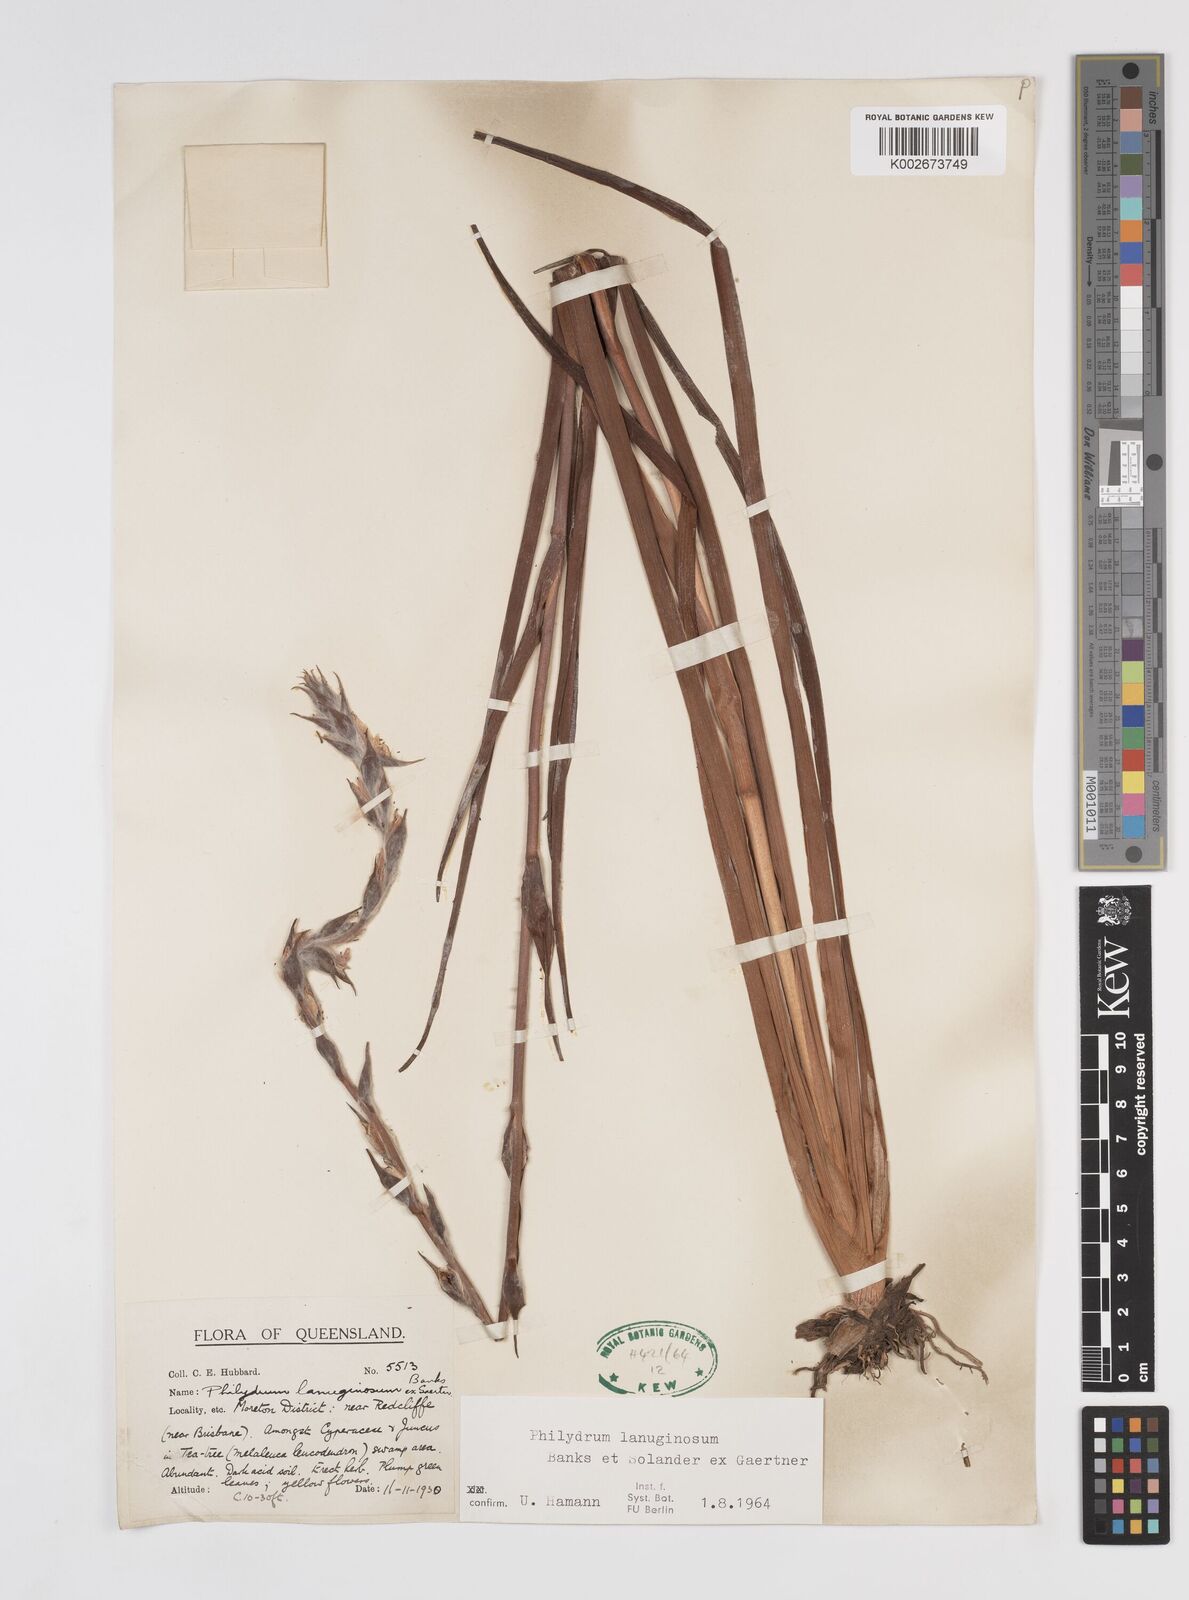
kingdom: Plantae
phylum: Tracheophyta
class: Liliopsida
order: Commelinales
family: Philydraceae
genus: Philydrum
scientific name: Philydrum lanuginosum
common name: Woolly frog's mouth
